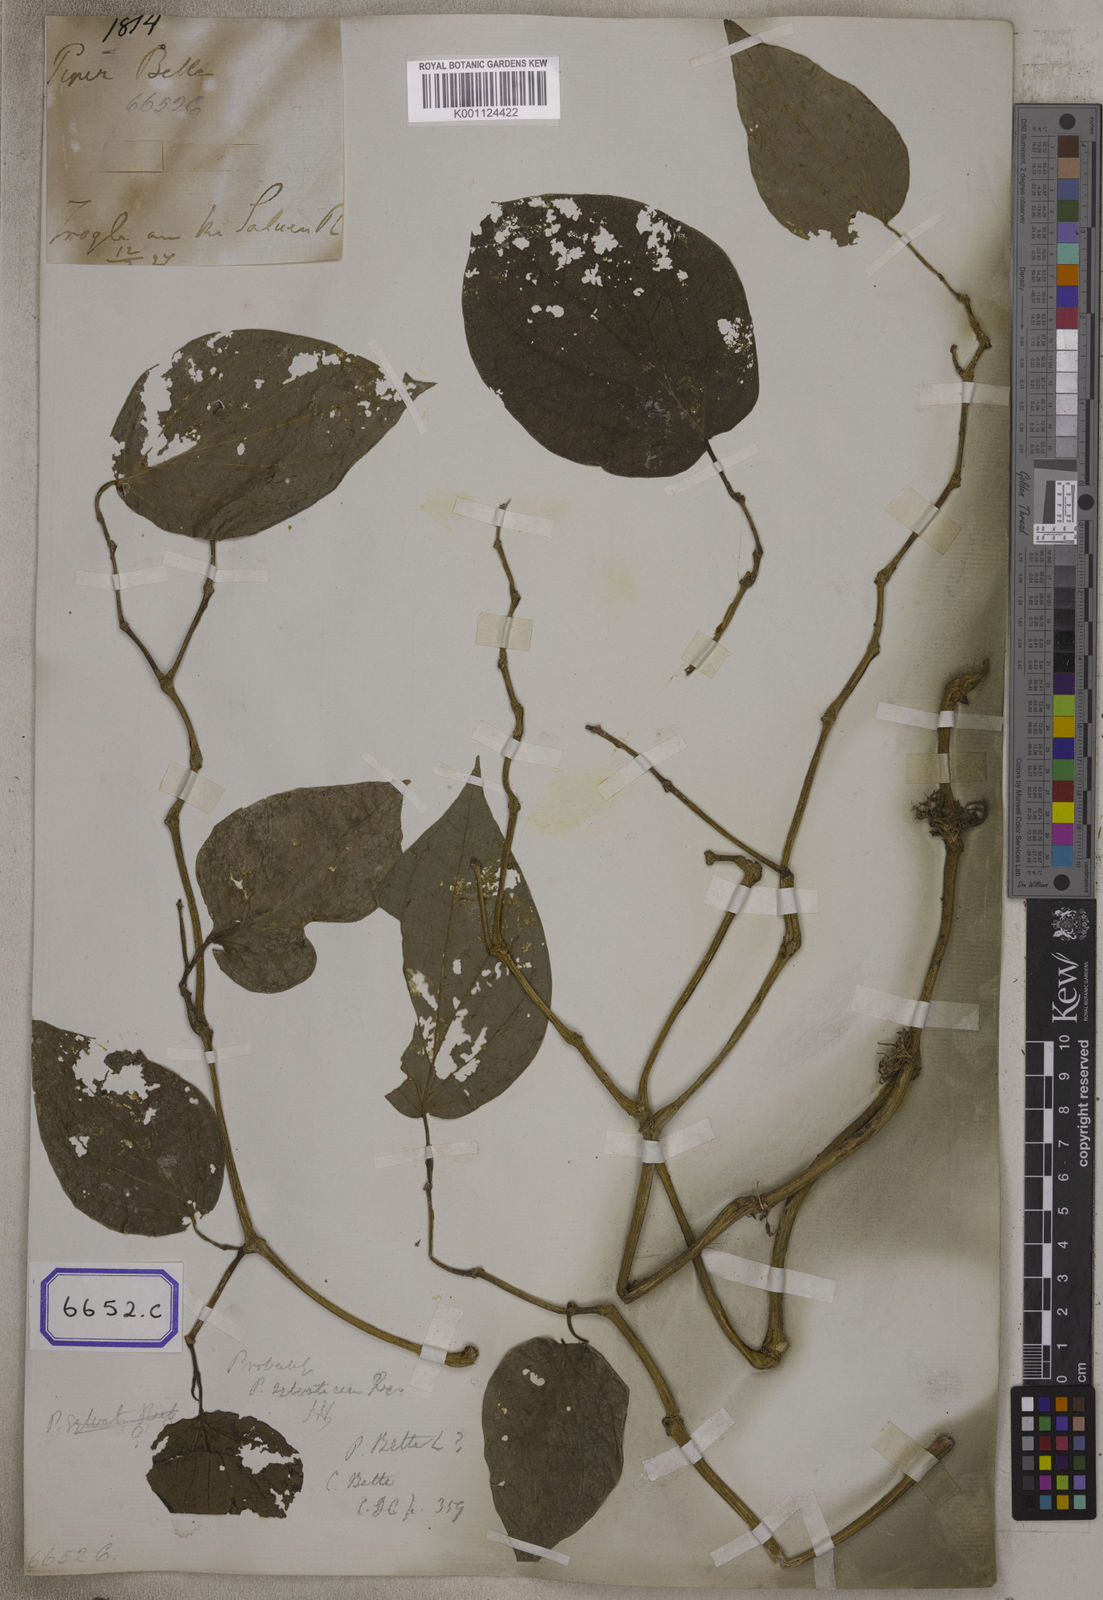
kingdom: Plantae
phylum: Tracheophyta
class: Magnoliopsida
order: Piperales
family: Piperaceae
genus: Piper
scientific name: Piper betle
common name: Betel pepper
